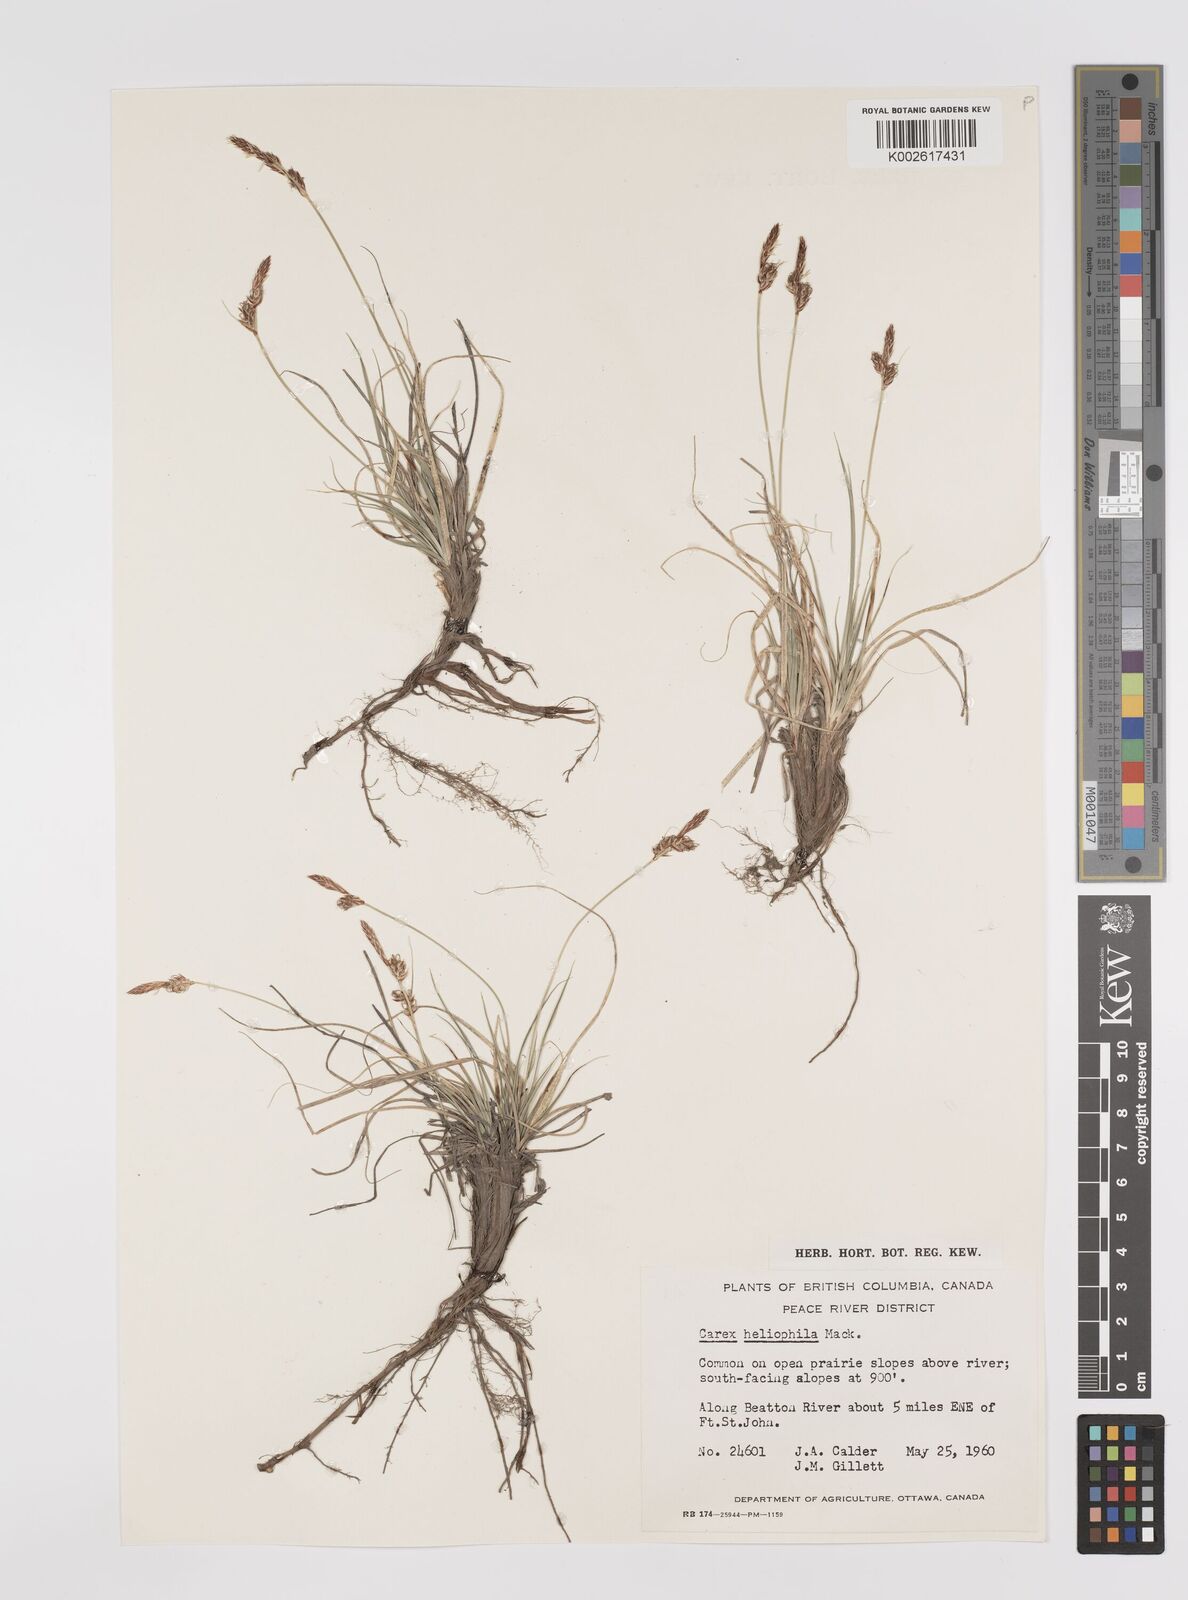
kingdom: Plantae
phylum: Tracheophyta
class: Liliopsida
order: Poales
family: Cyperaceae
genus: Carex
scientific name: Carex inops
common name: Long-stolon sedge
